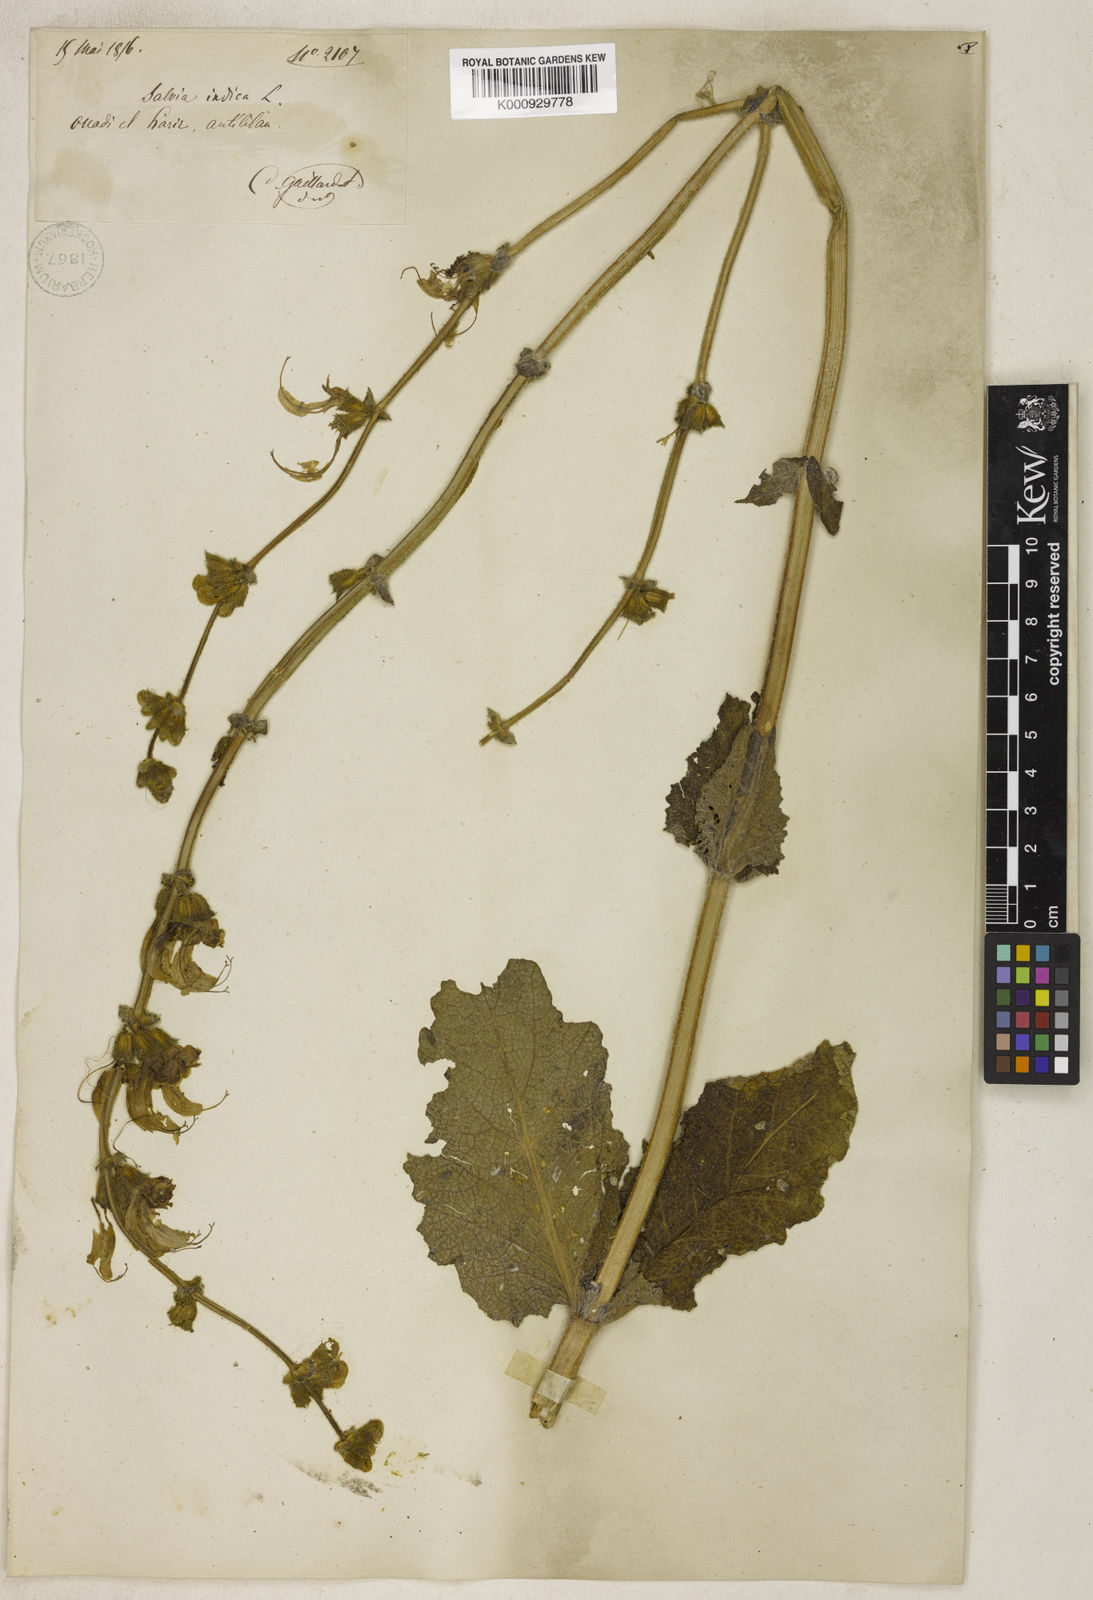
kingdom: Plantae
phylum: Tracheophyta
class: Magnoliopsida
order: Lamiales
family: Lamiaceae
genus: Salvia
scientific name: Salvia indica
